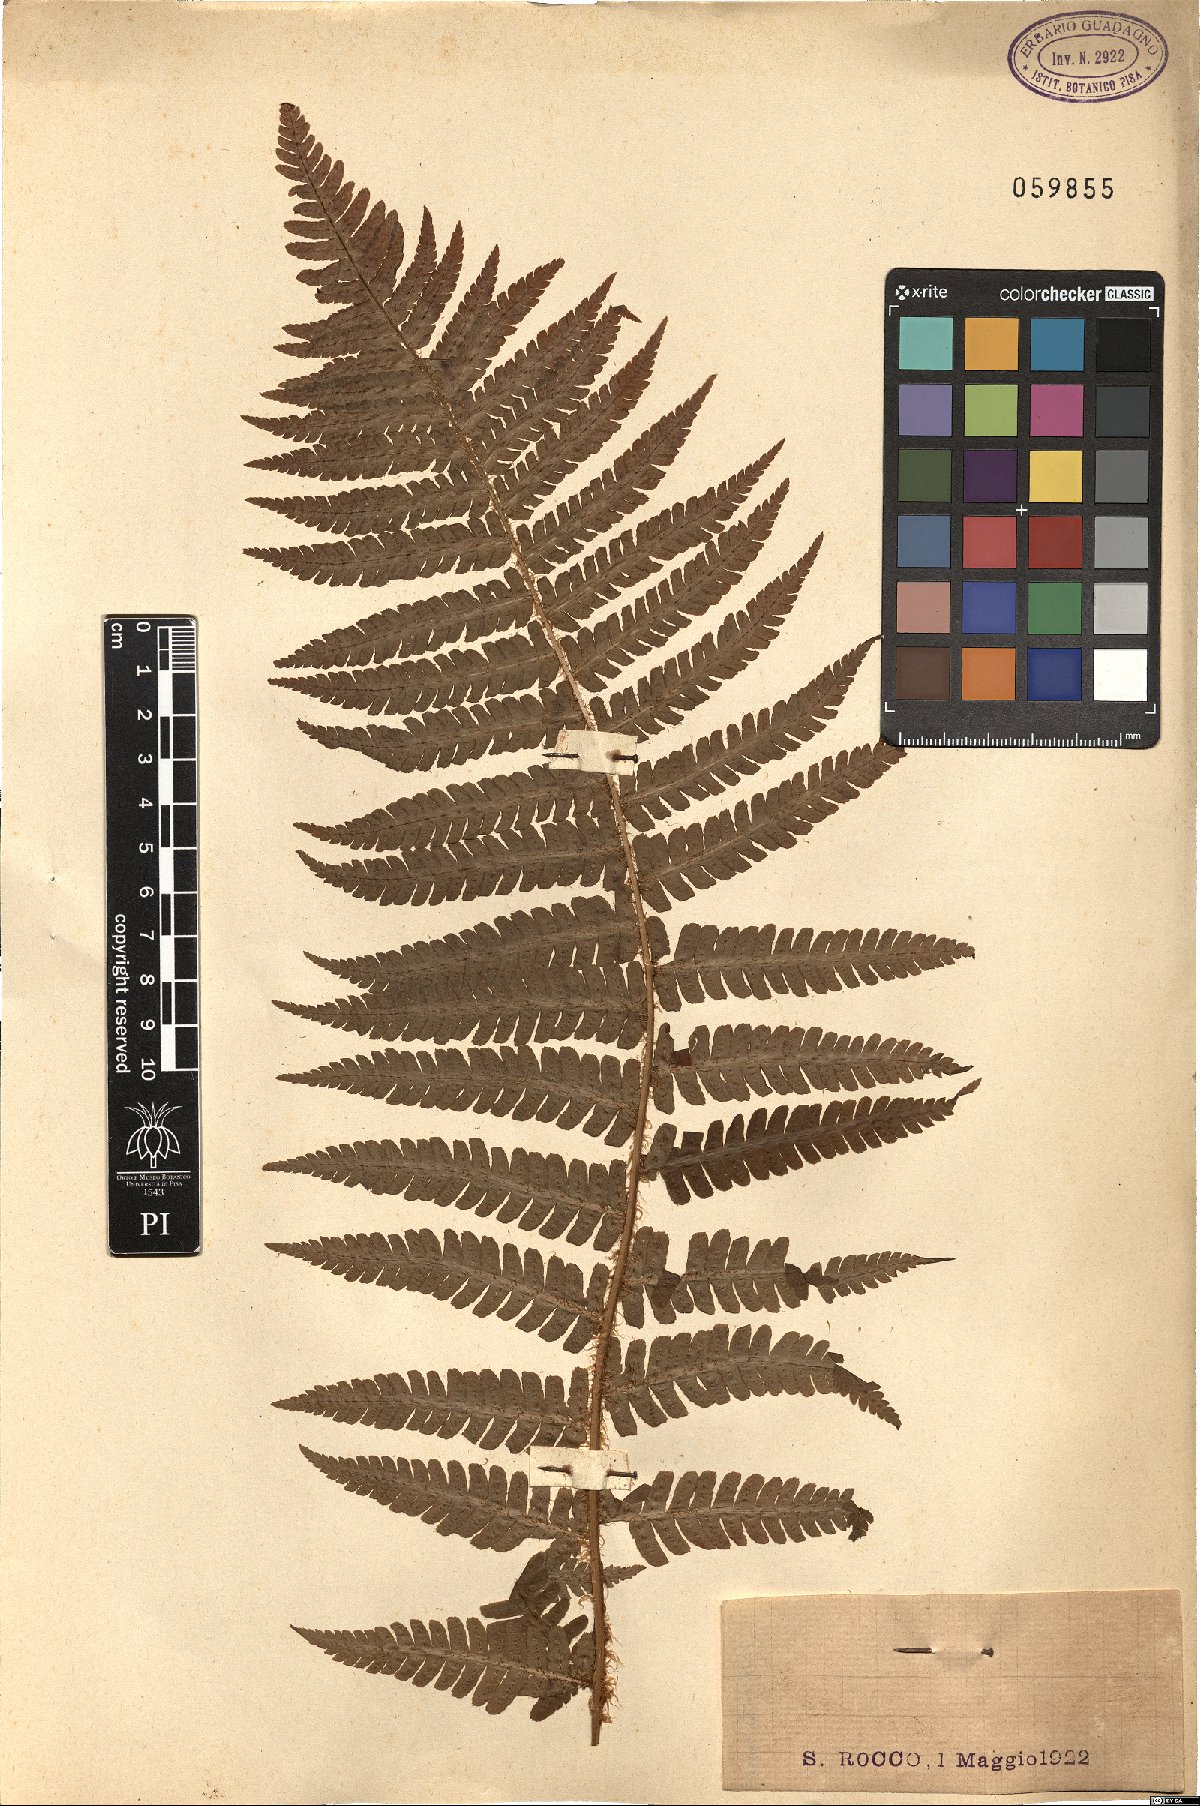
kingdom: Plantae
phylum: Tracheophyta
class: Polypodiopsida
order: Polypodiales
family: Dryopteridaceae
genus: Dryopteris
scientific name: Dryopteris
